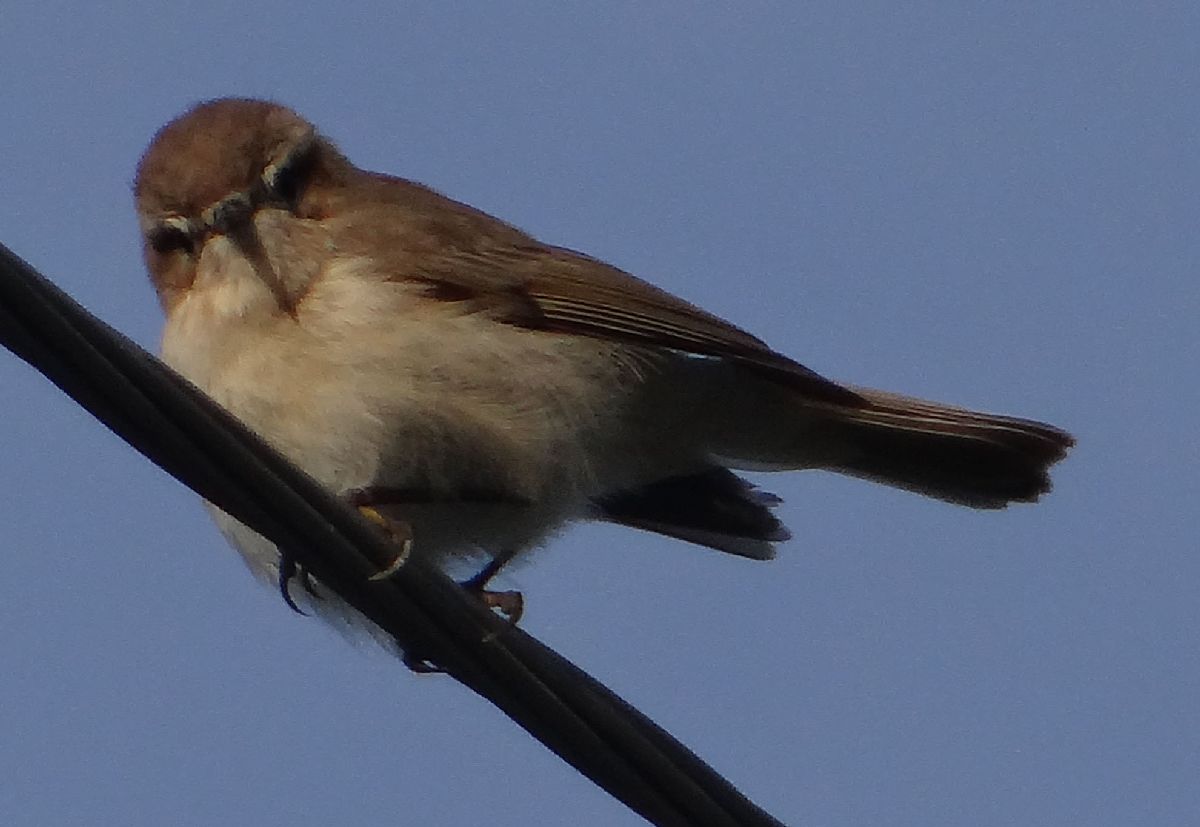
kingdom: Animalia
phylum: Chordata
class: Aves
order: Passeriformes
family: Phylloscopidae
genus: Phylloscopus
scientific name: Phylloscopus sindianus
